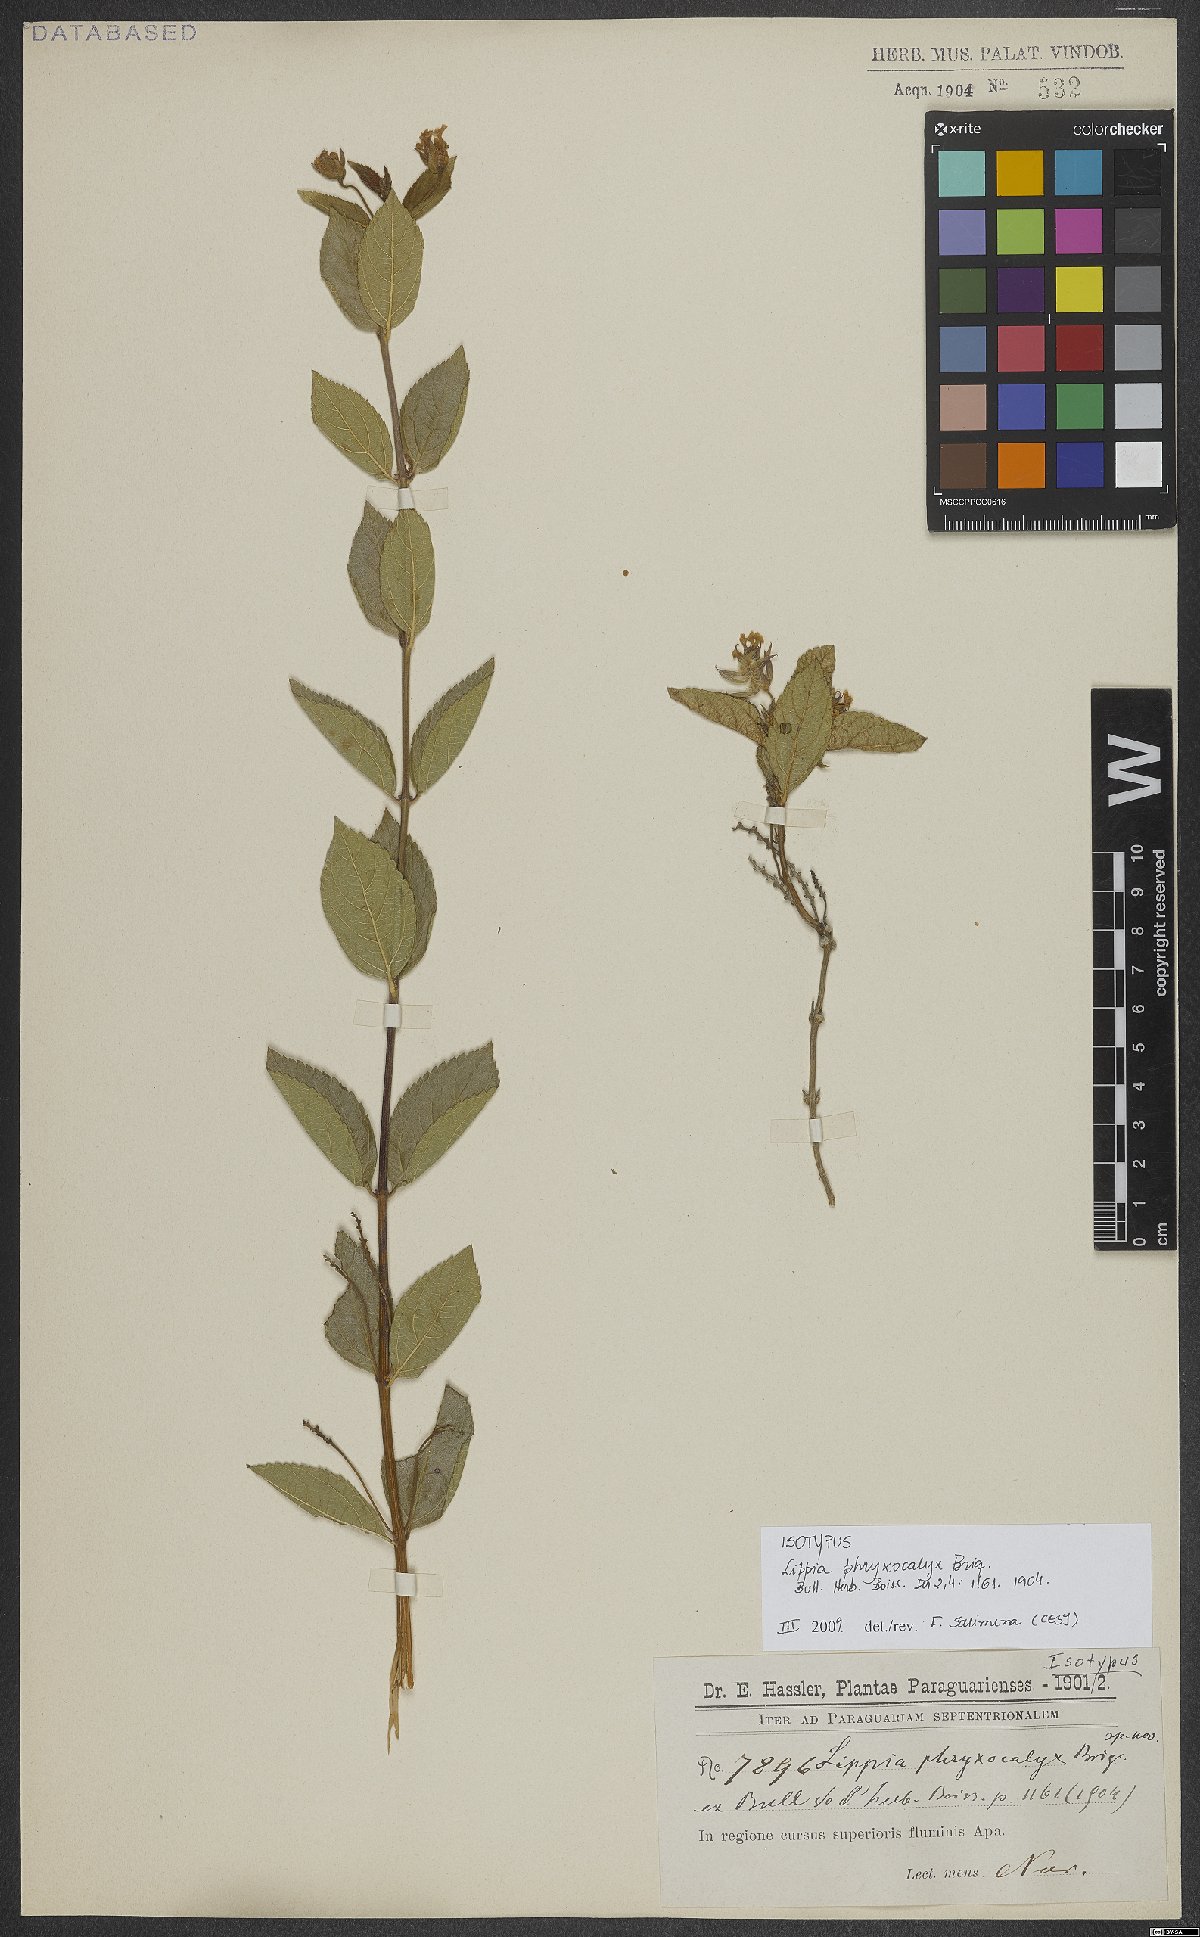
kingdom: Plantae
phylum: Tracheophyta
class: Magnoliopsida
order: Lamiales
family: Verbenaceae
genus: Lippia
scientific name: Lippia phryxocalyx
